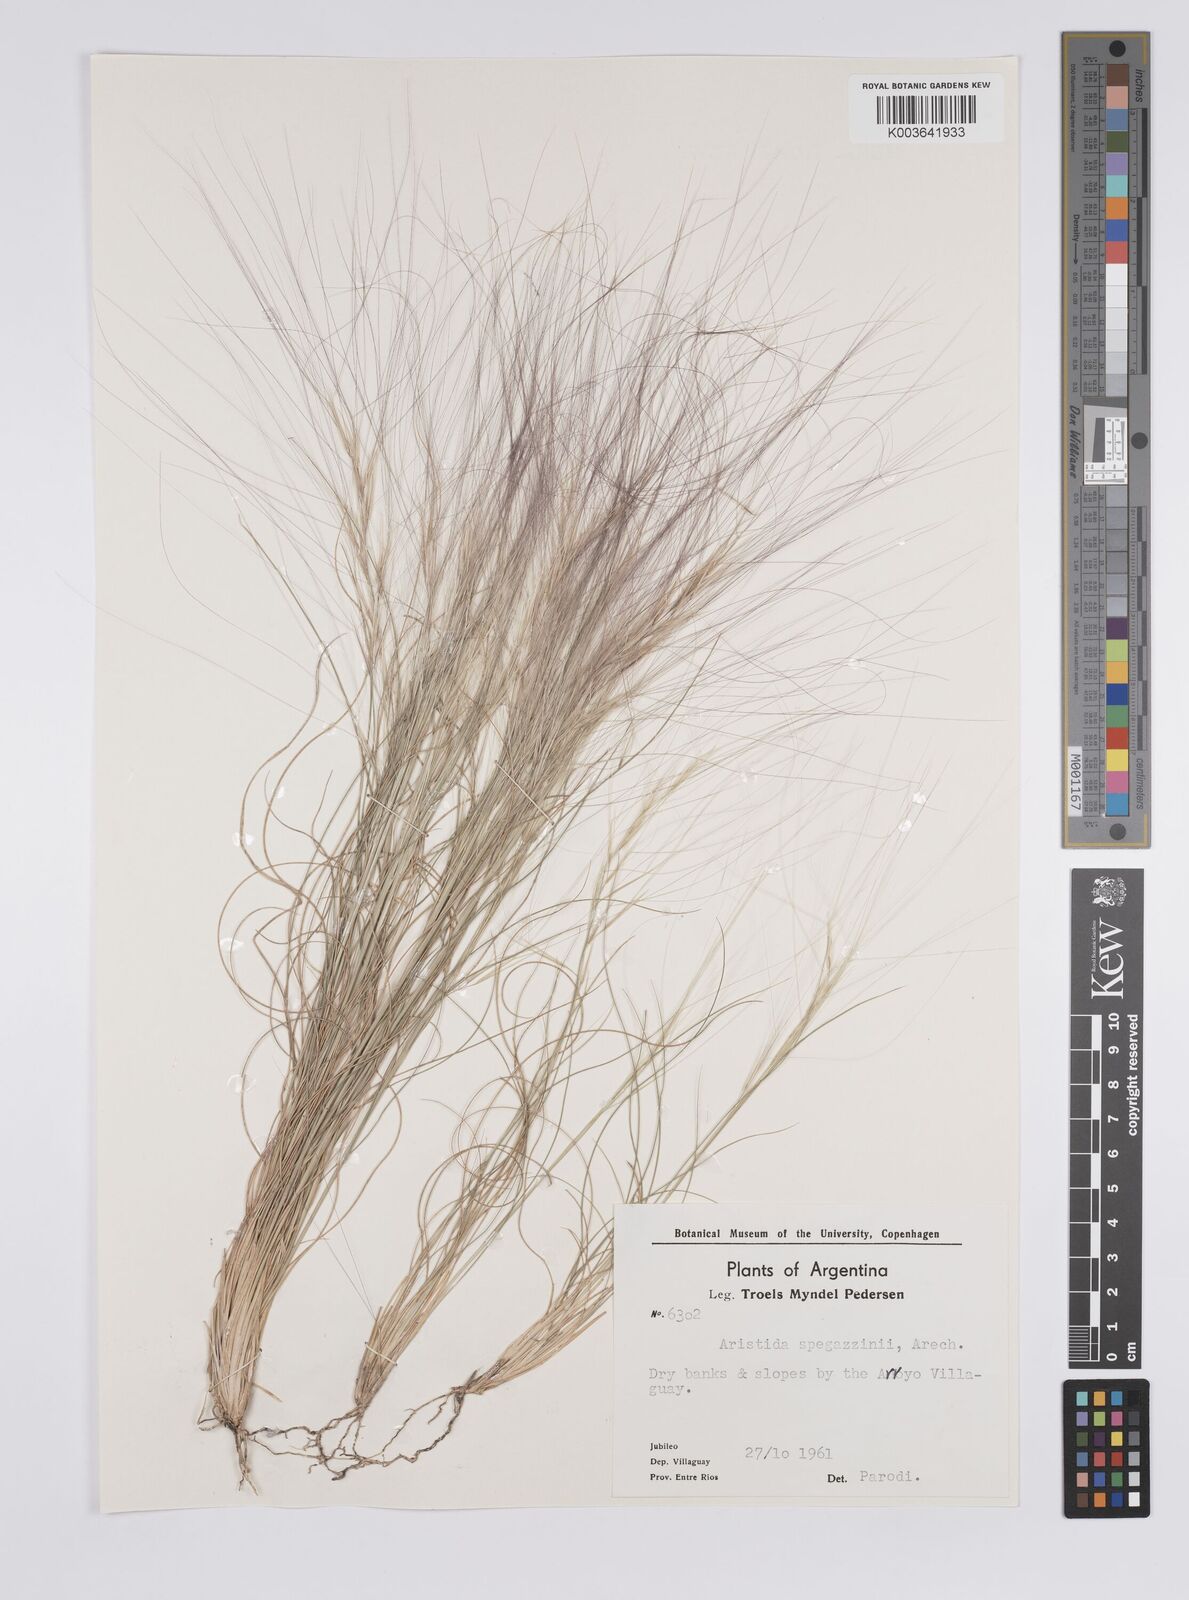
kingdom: Plantae
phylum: Tracheophyta
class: Liliopsida
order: Poales
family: Poaceae
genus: Aristida
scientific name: Aristida spegazzinii
